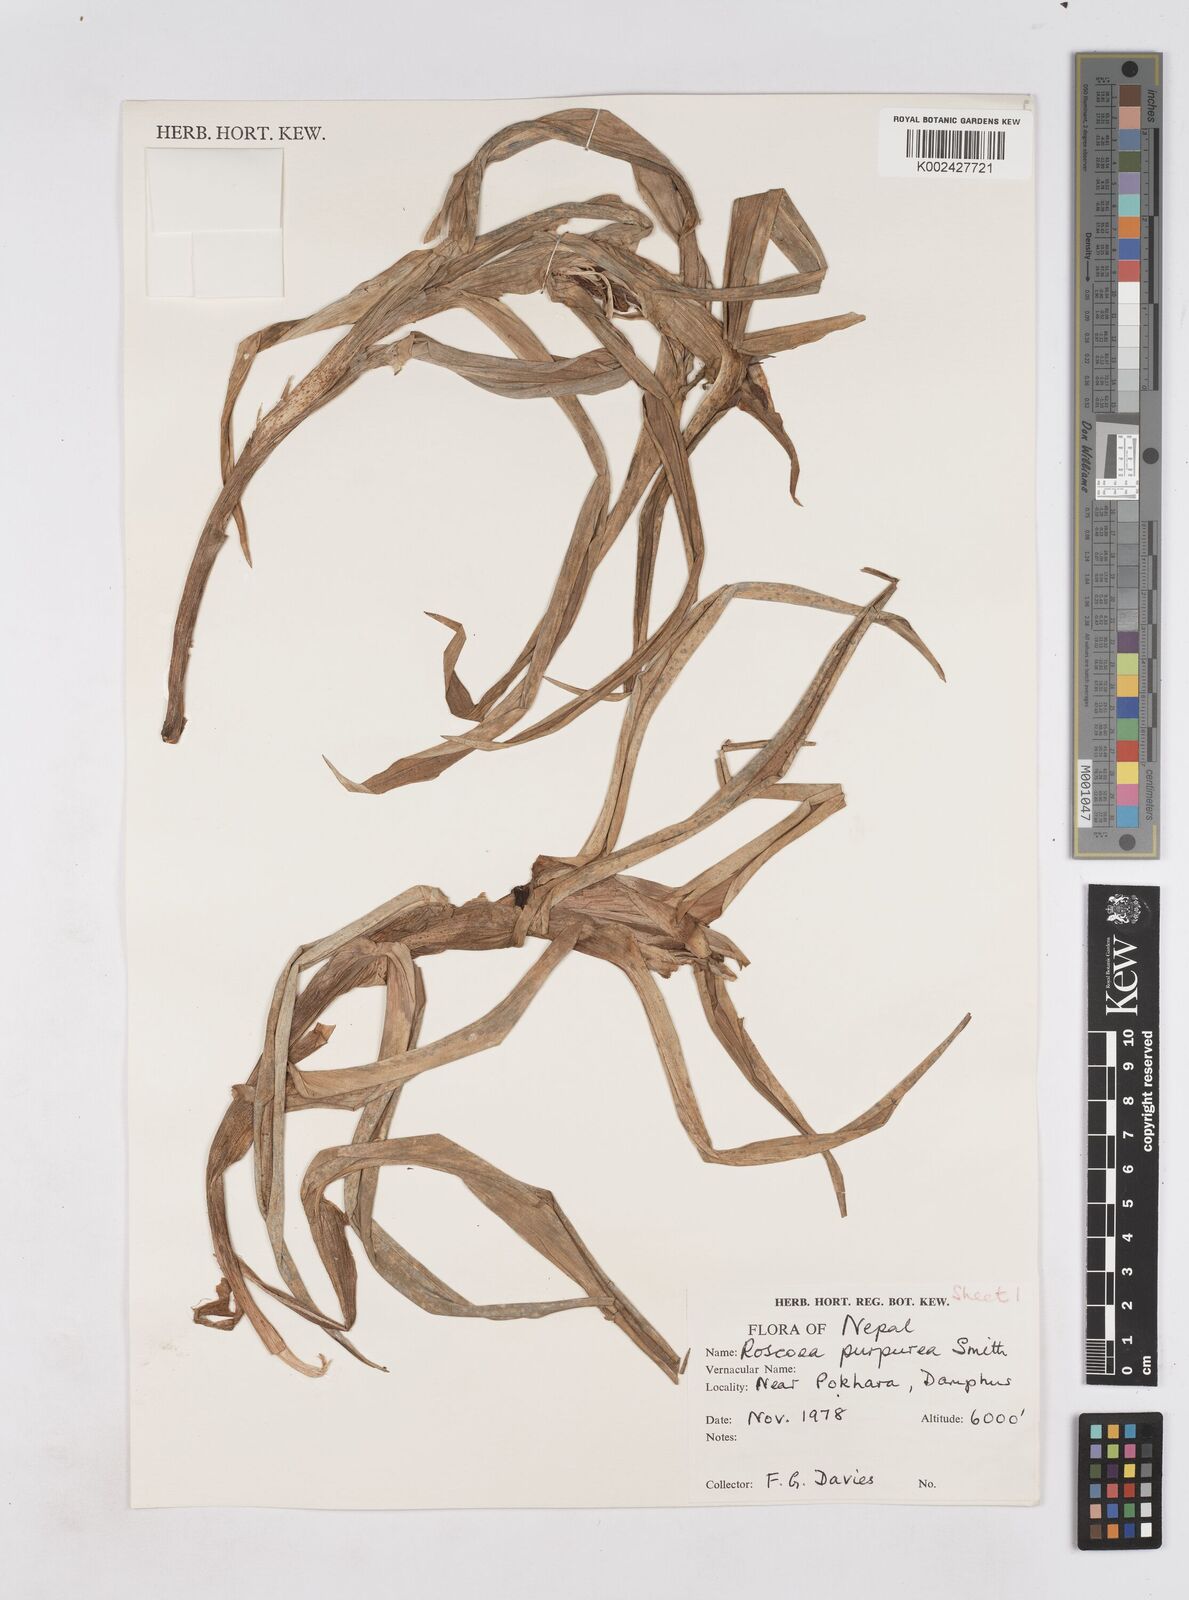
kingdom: Plantae
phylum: Tracheophyta
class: Liliopsida
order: Zingiberales
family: Zingiberaceae
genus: Roscoea
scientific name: Roscoea purpurea
